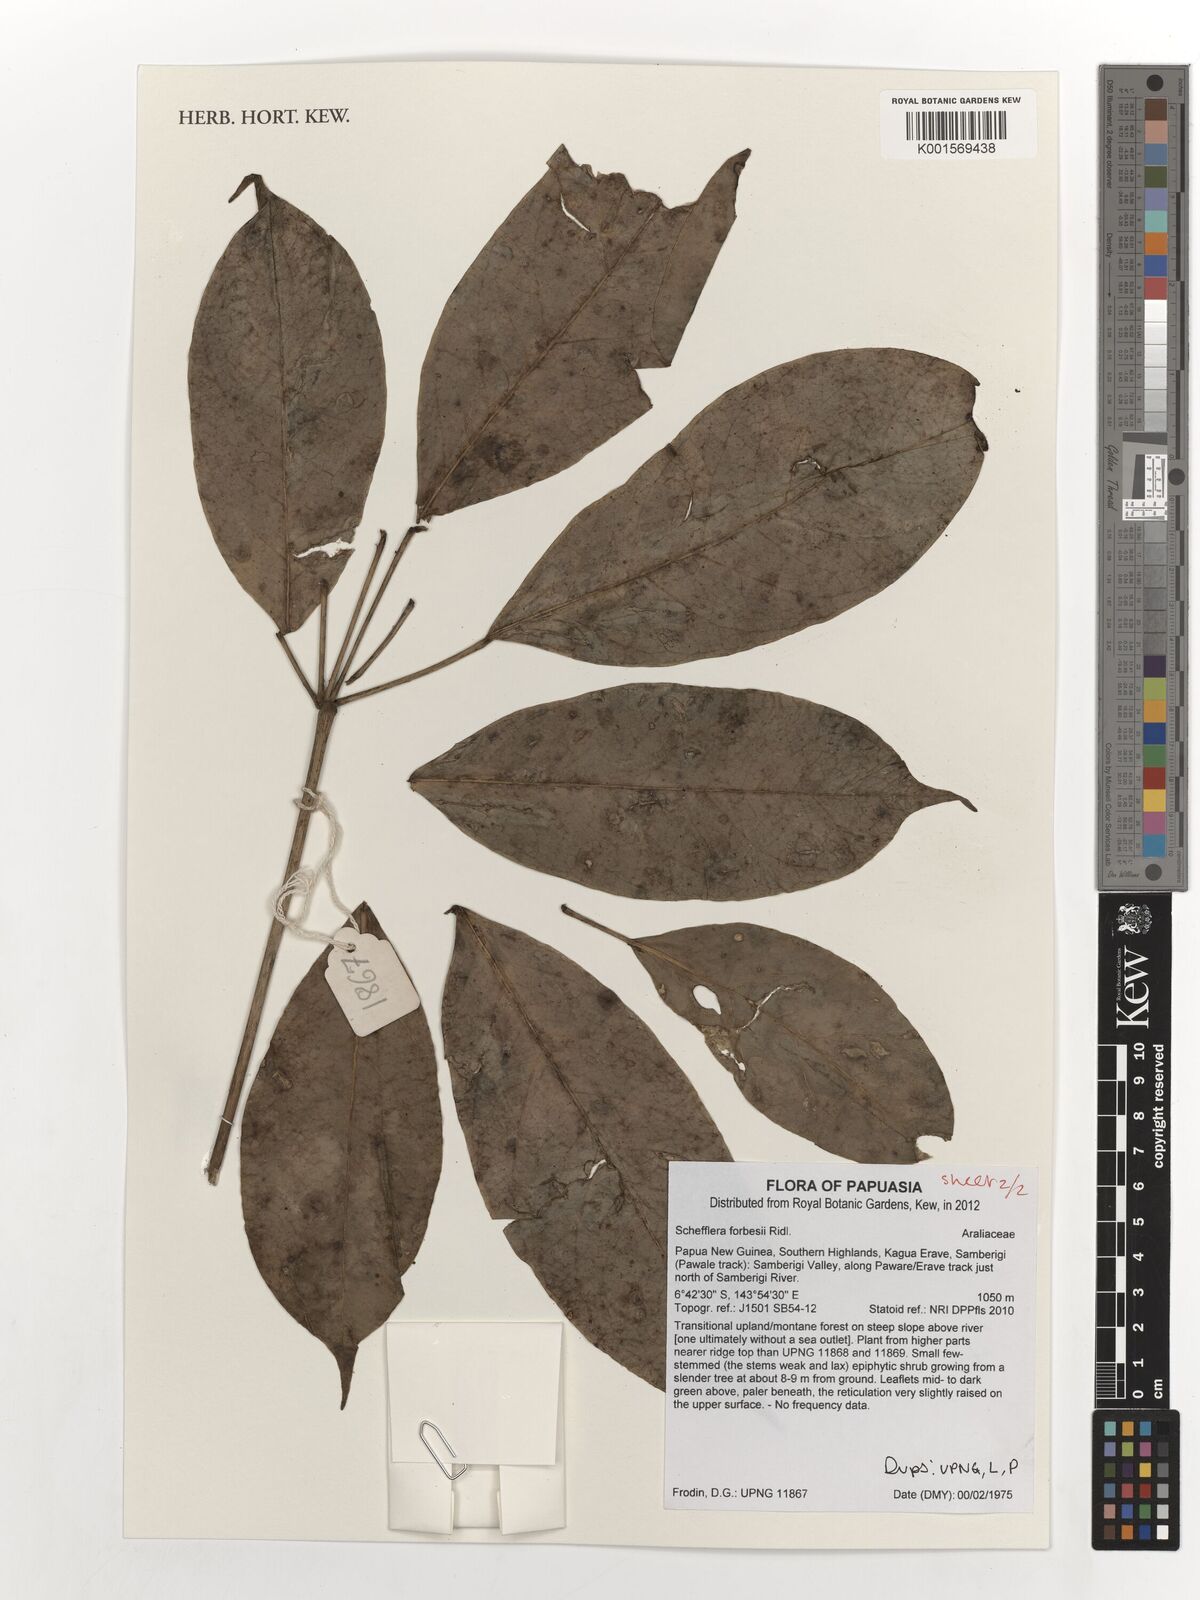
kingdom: Plantae
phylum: Tracheophyta
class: Magnoliopsida
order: Apiales
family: Araliaceae
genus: Heptapleurum
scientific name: Heptapleurum forbesii
